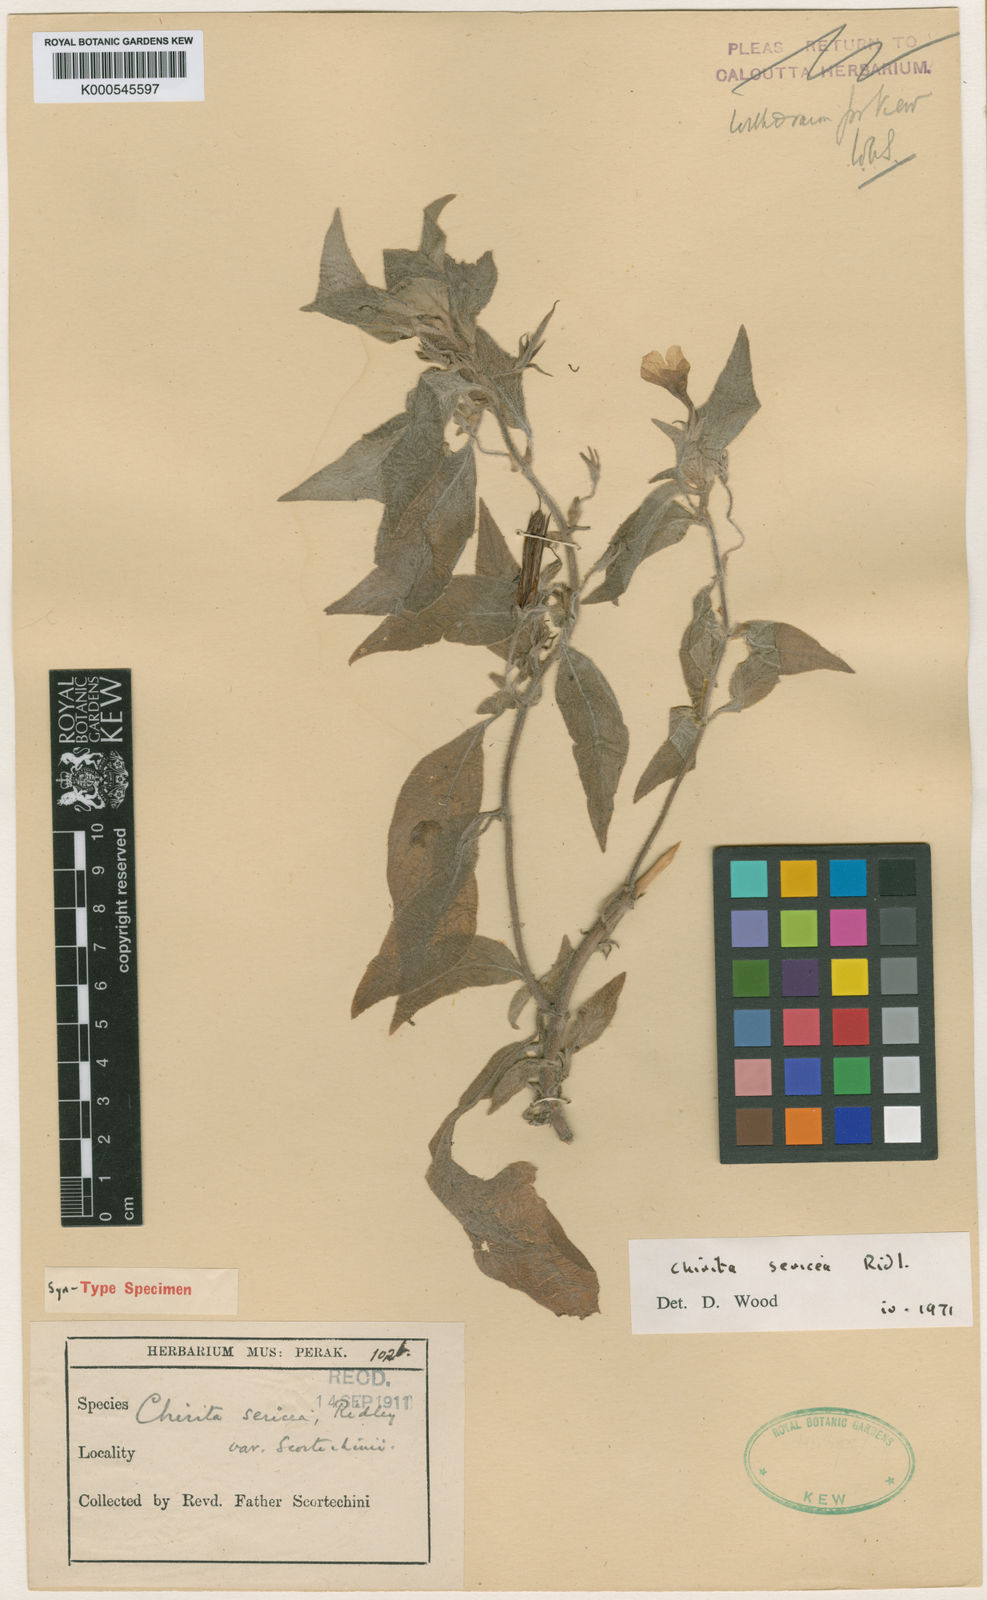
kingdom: Plantae
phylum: Tracheophyta
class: Magnoliopsida
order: Lamiales
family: Gesneriaceae
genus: Microchirita
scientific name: Microchirita sericea
